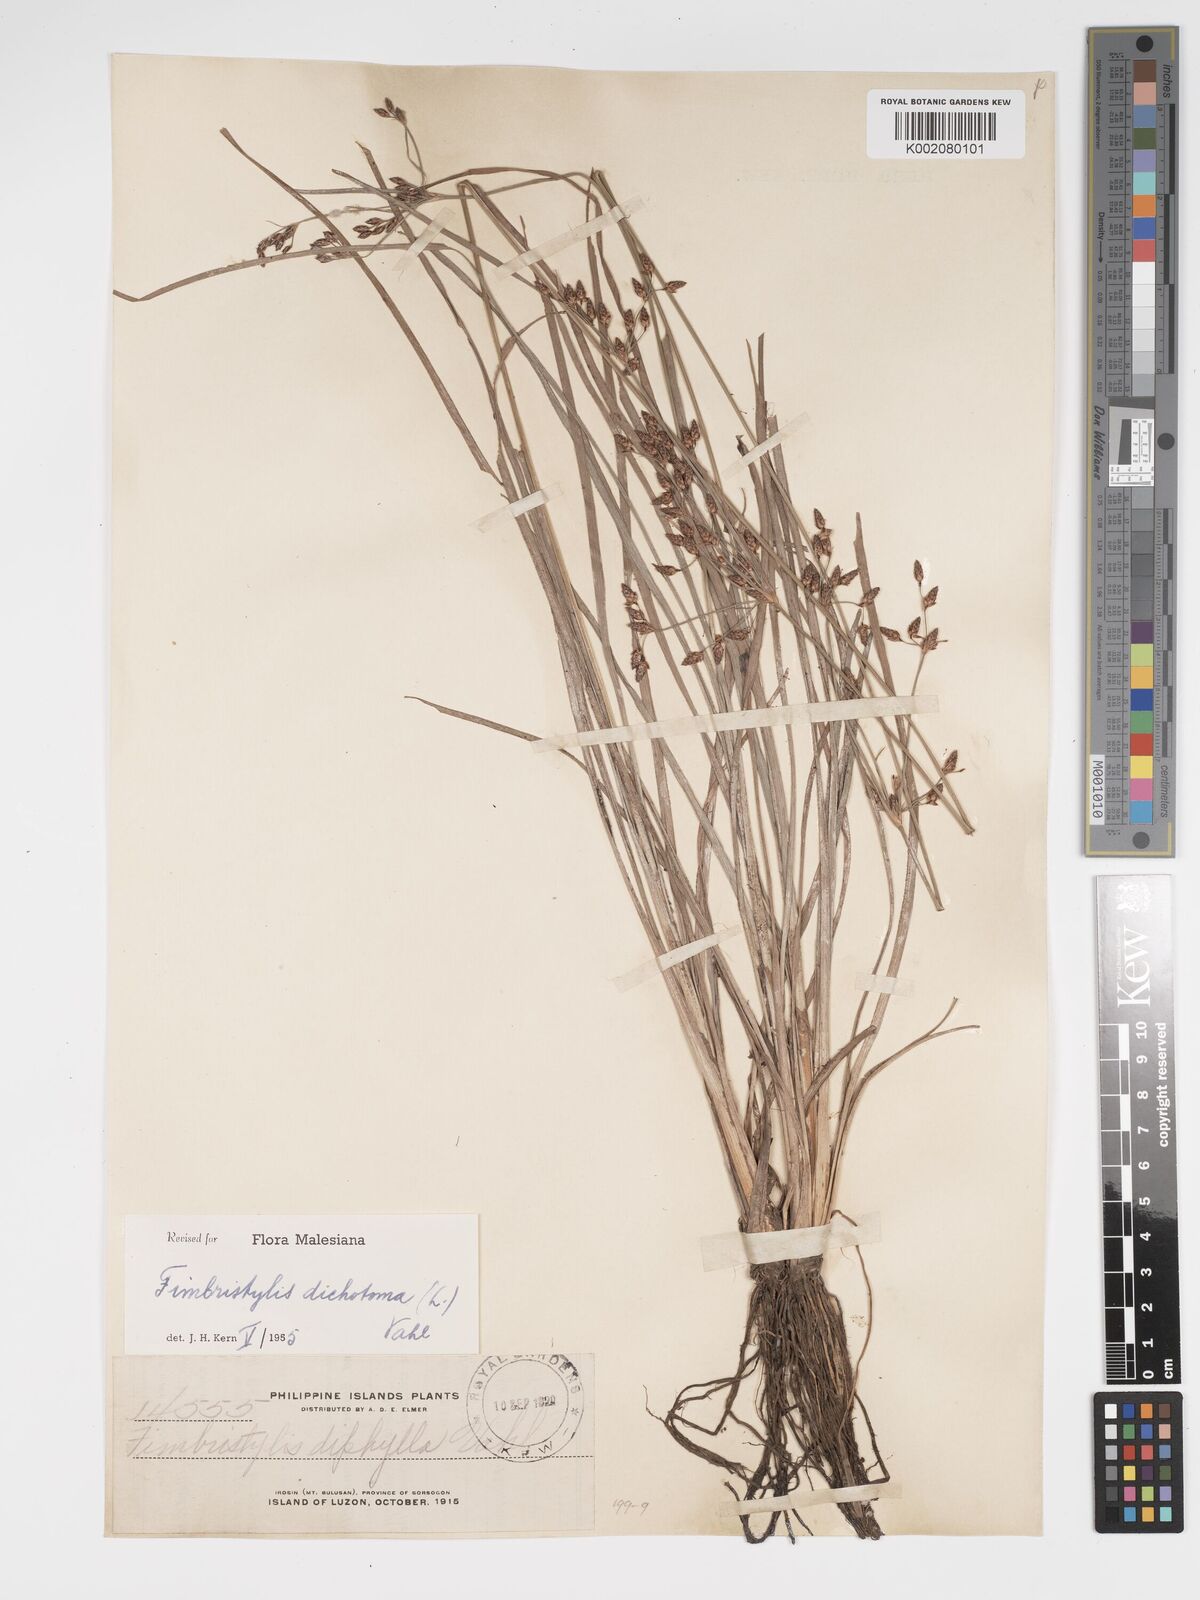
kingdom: Plantae
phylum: Tracheophyta
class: Liliopsida
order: Poales
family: Cyperaceae
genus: Fimbristylis
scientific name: Fimbristylis dichotoma
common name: Forked fimbry
